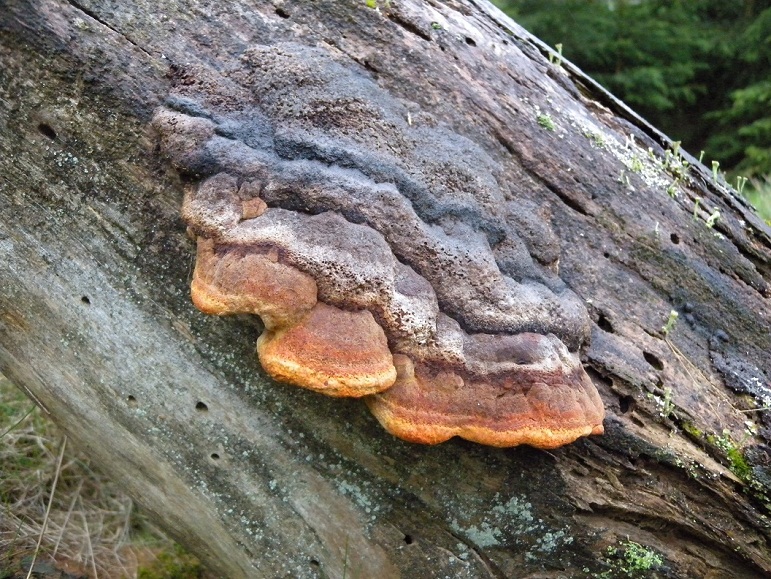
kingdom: Fungi
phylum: Basidiomycota
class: Agaricomycetes
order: Gloeophyllales
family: Gloeophyllaceae
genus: Gloeophyllum
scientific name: Gloeophyllum odoratum
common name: duftende korkhat
